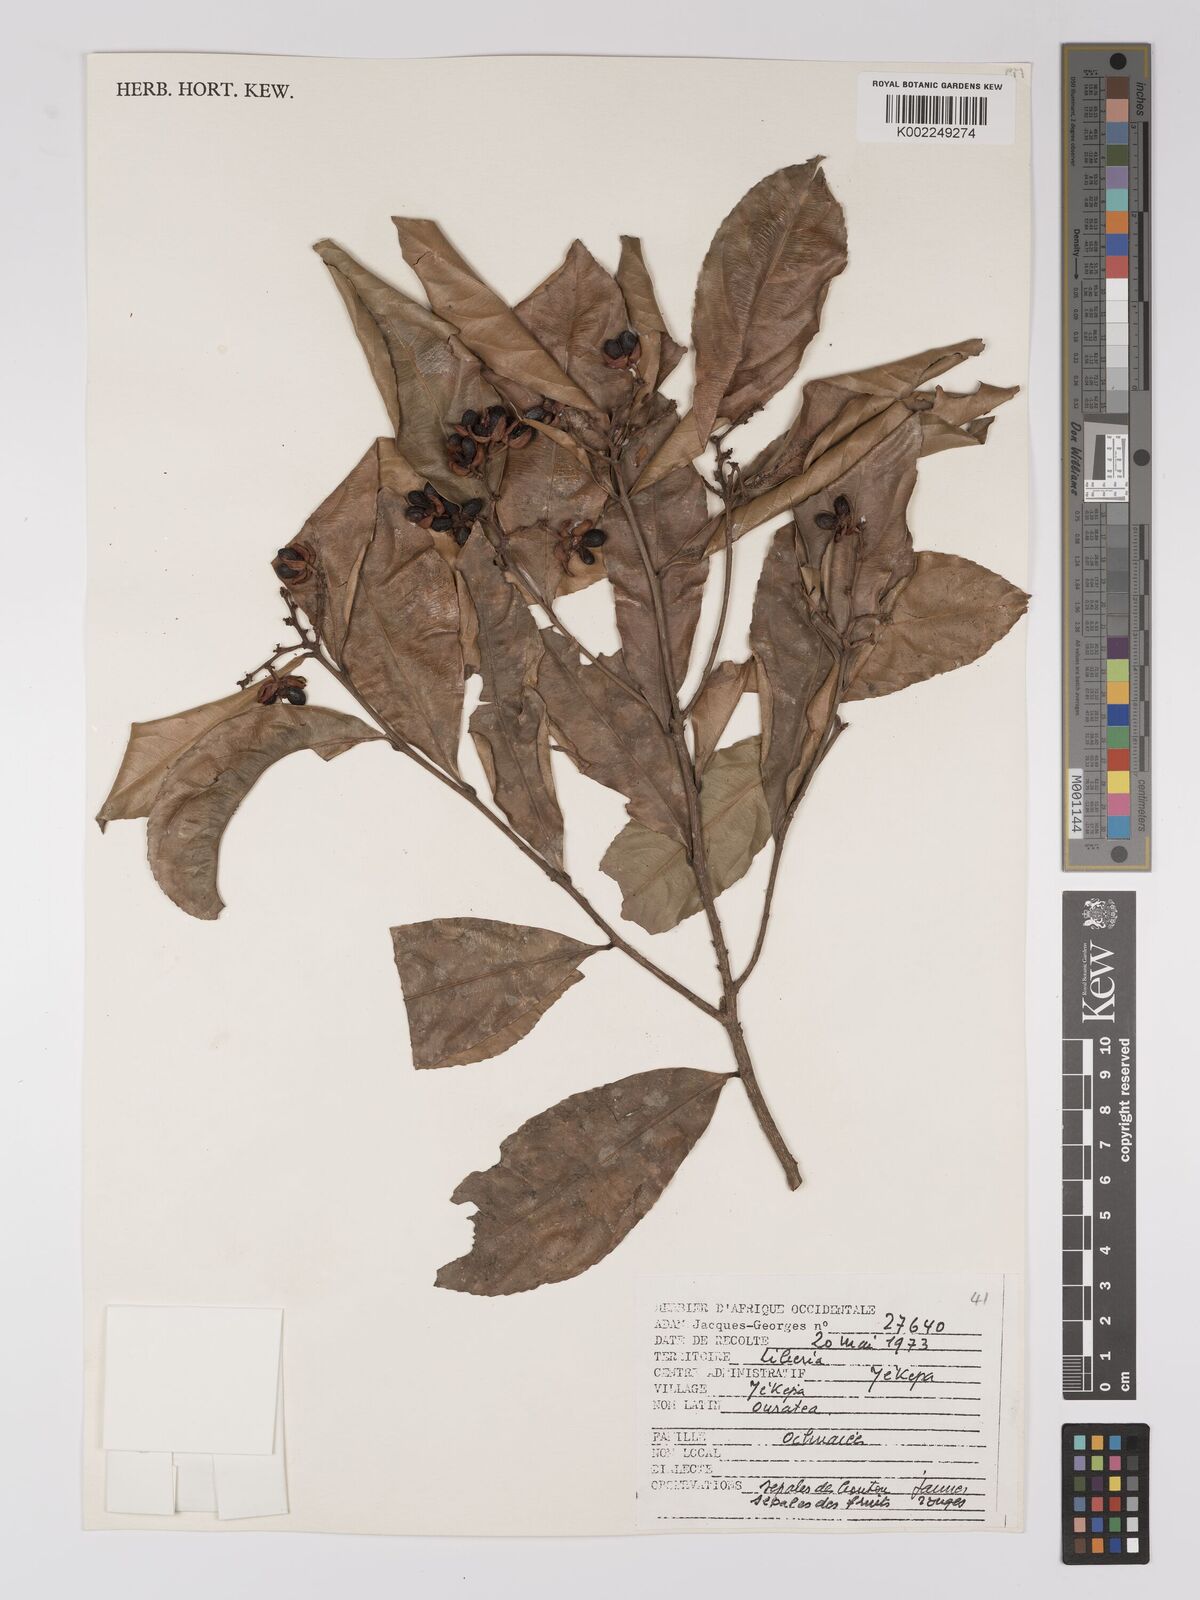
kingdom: Plantae
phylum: Tracheophyta
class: Magnoliopsida
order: Malpighiales
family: Ochnaceae
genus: Campylospermum
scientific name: Campylospermum
